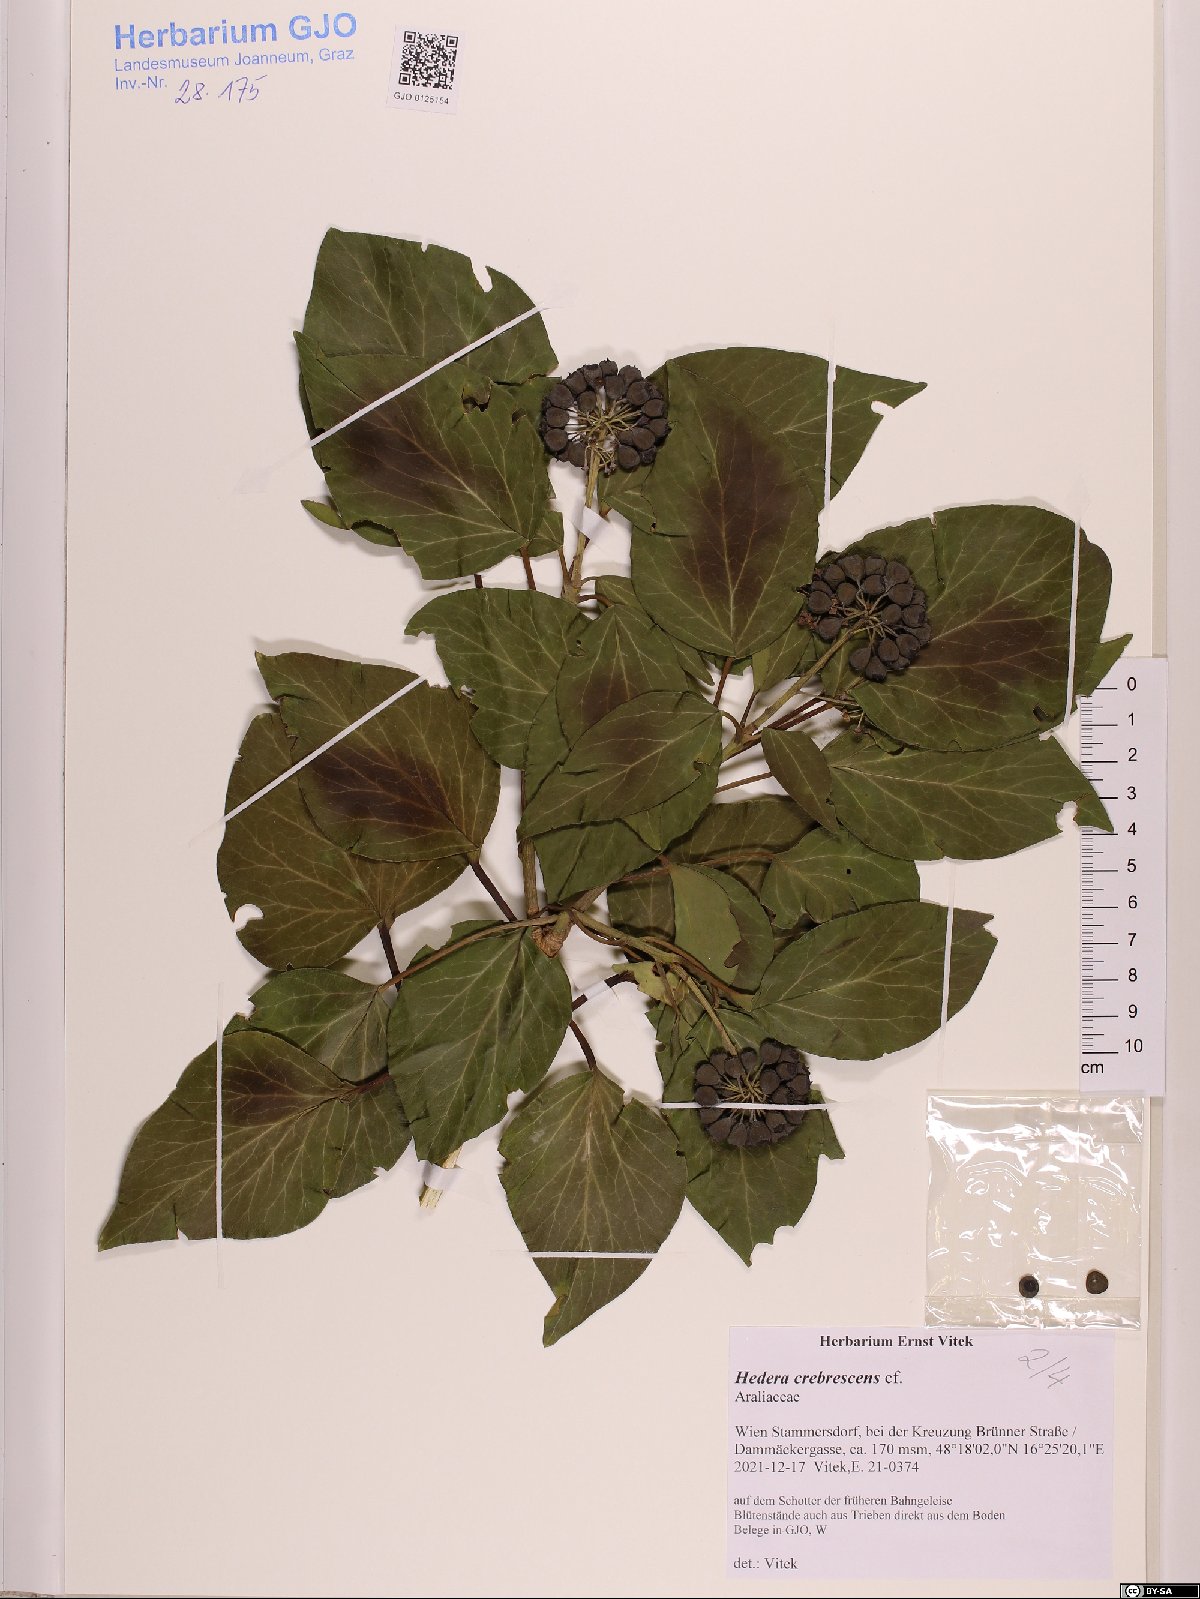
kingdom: Plantae
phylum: Tracheophyta
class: Magnoliopsida
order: Apiales
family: Araliaceae
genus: Hedera
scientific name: Hedera crebrescens
